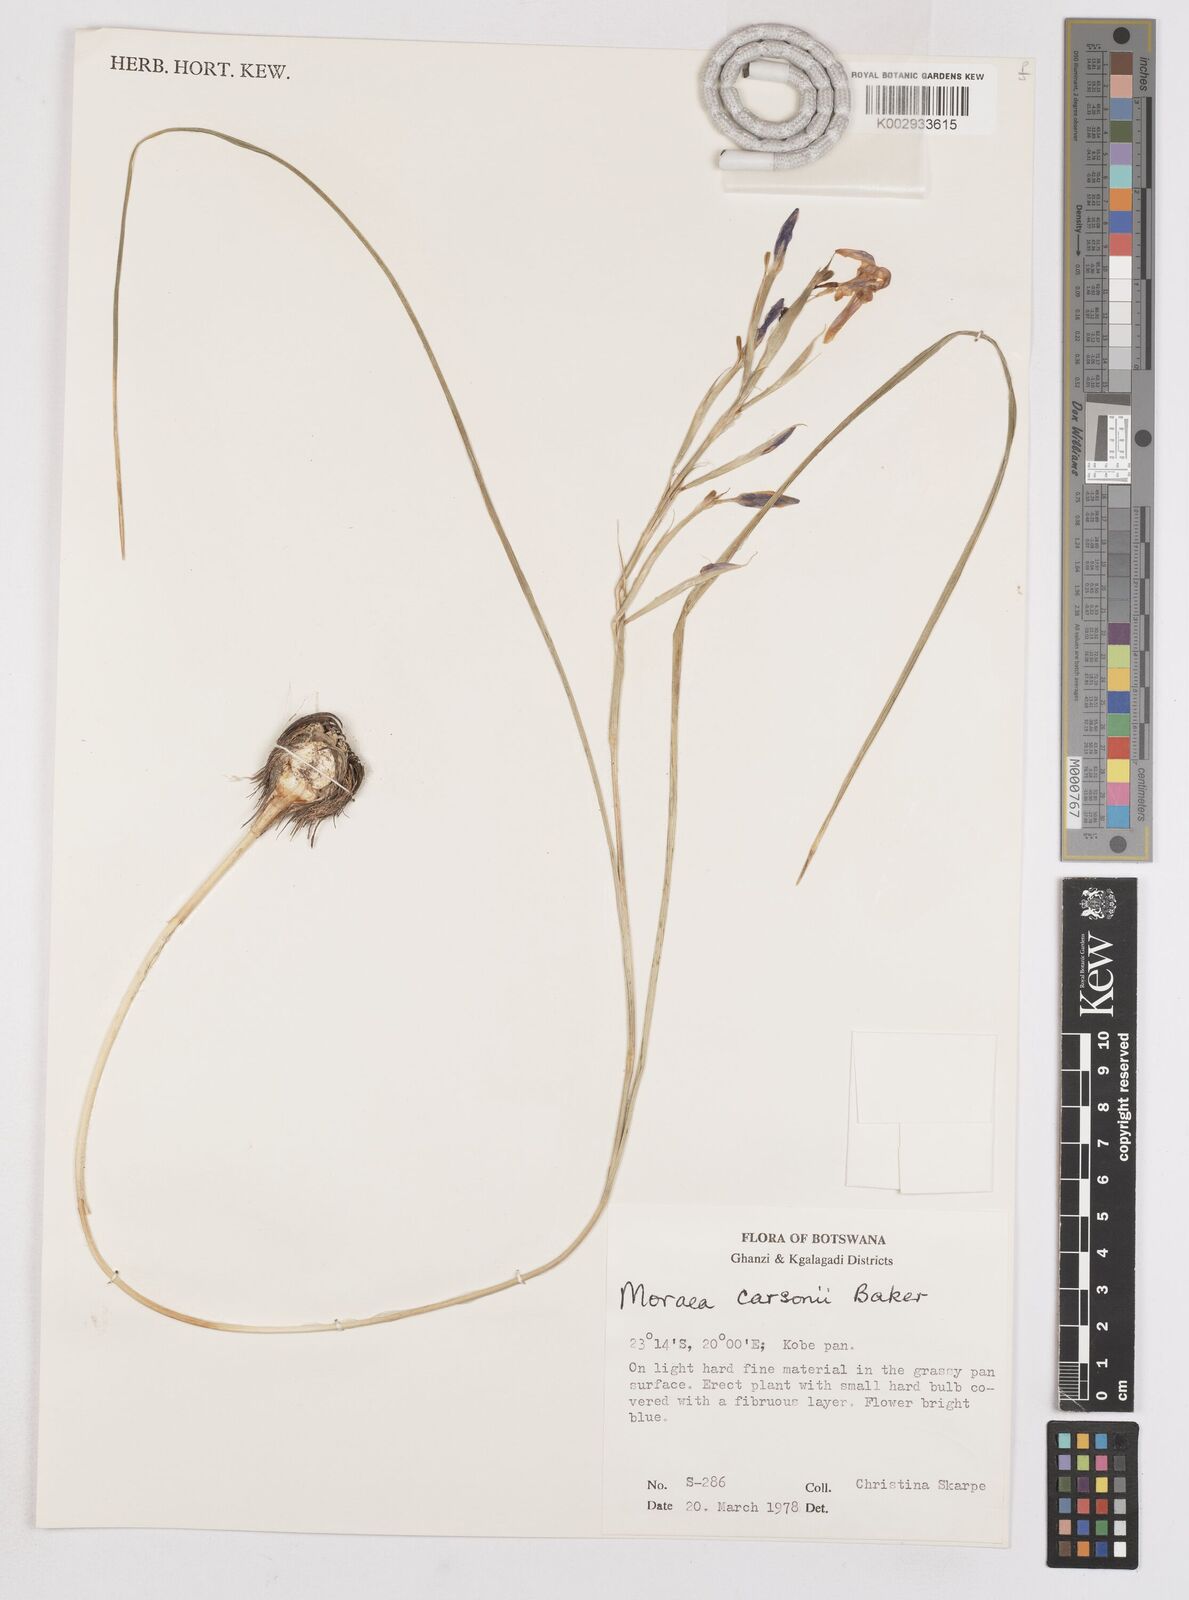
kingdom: Plantae
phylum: Tracheophyta
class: Liliopsida
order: Asparagales
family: Iridaceae
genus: Moraea
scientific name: Moraea carsonii
